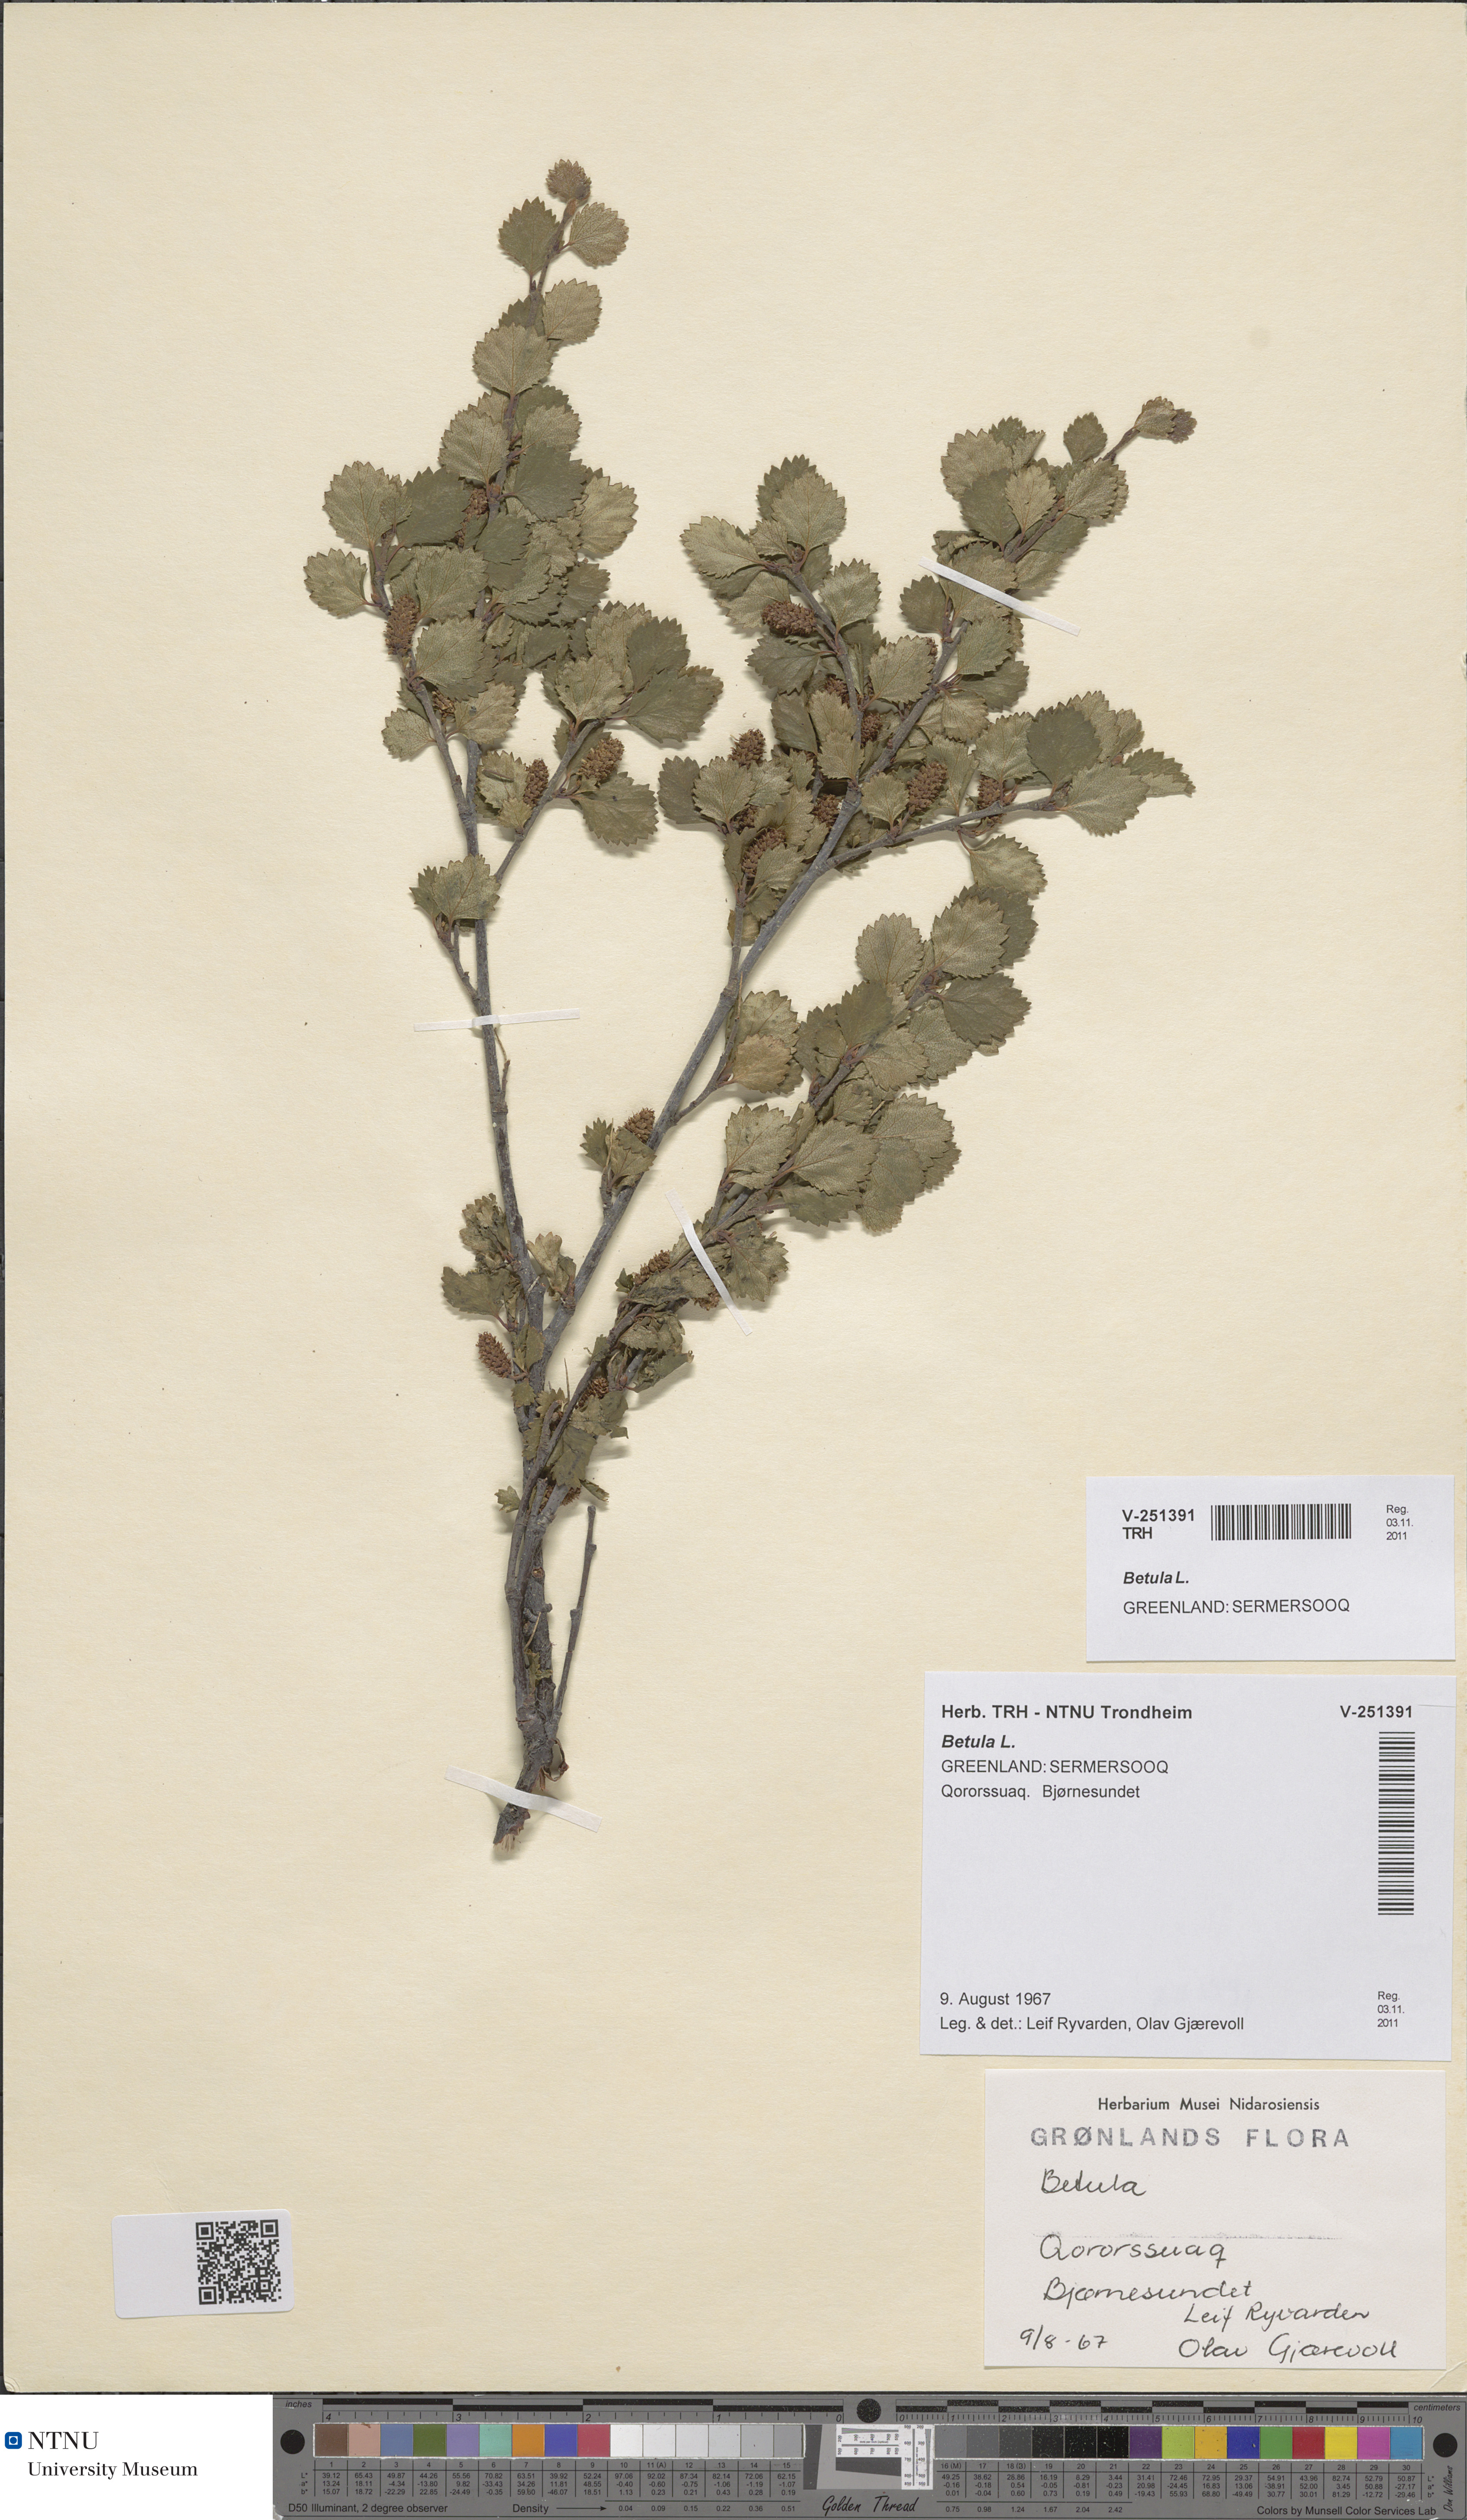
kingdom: Plantae
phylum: Tracheophyta
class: Magnoliopsida
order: Fagales
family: Betulaceae
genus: Betula
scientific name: Betula
